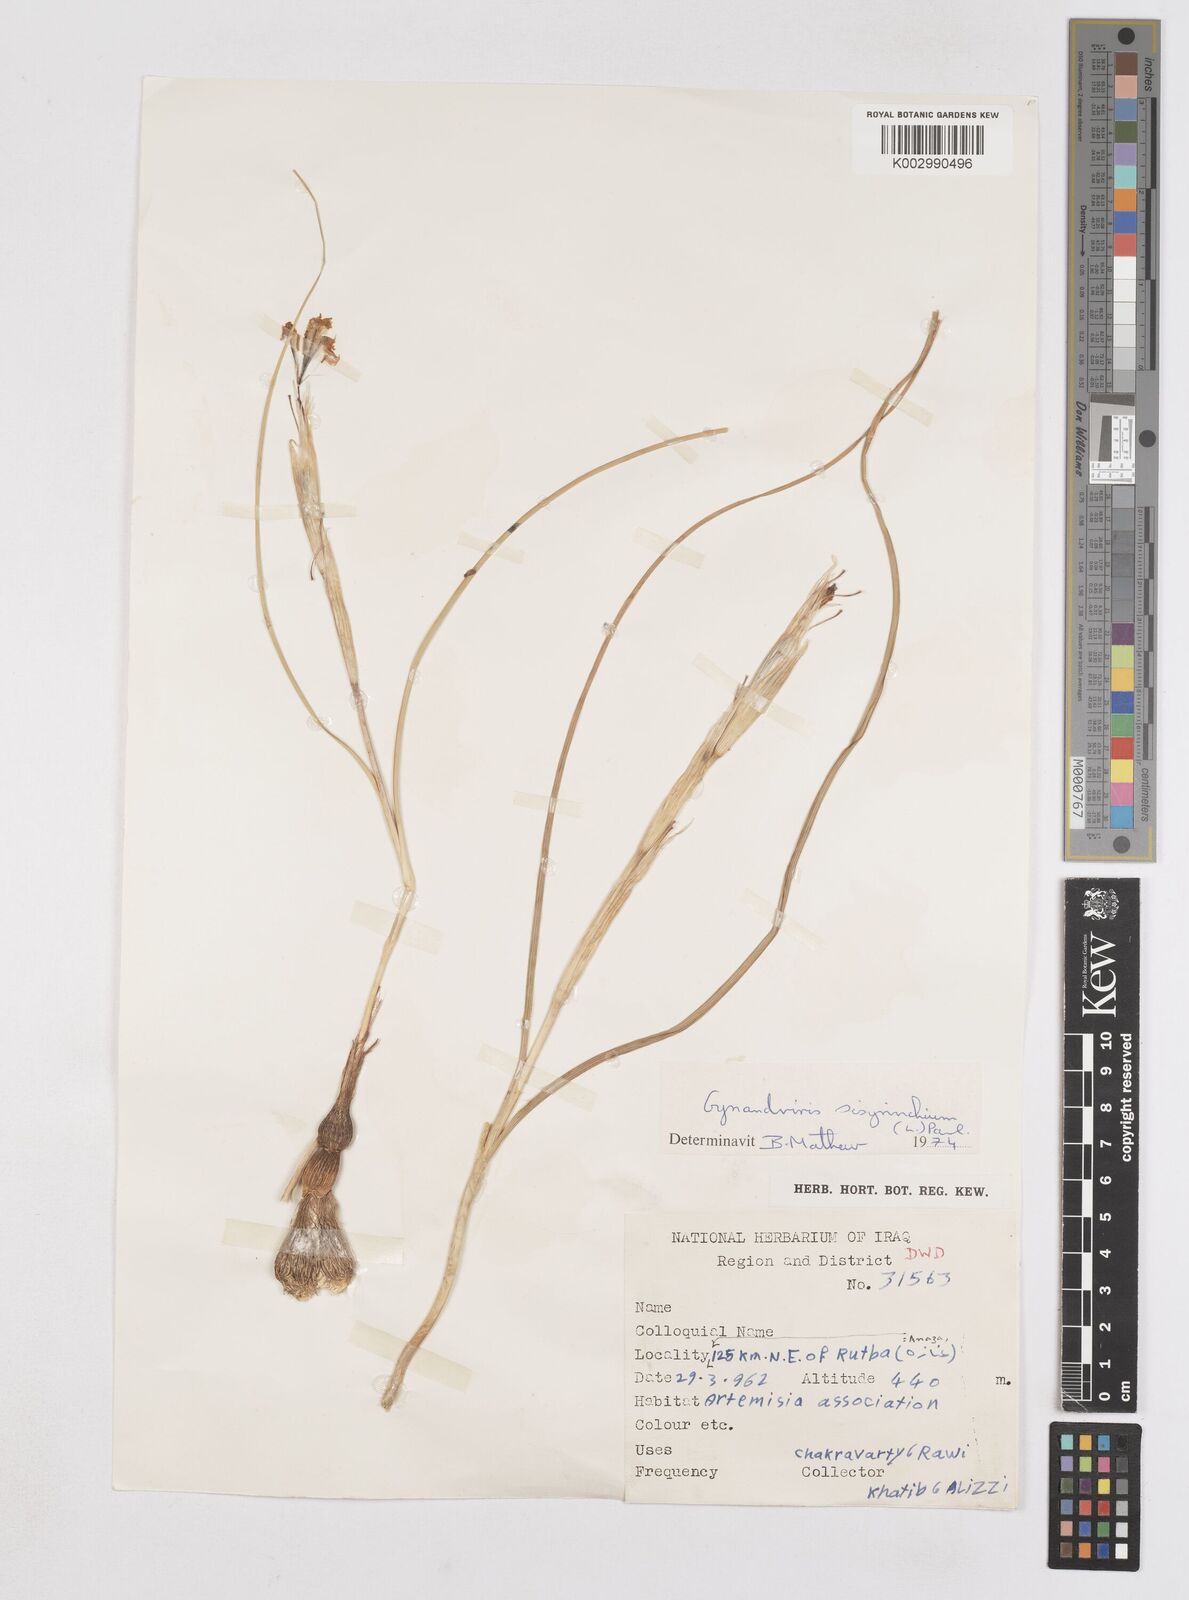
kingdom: Plantae
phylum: Tracheophyta
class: Liliopsida
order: Asparagales
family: Iridaceae
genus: Moraea
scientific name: Moraea sisyrinchium
